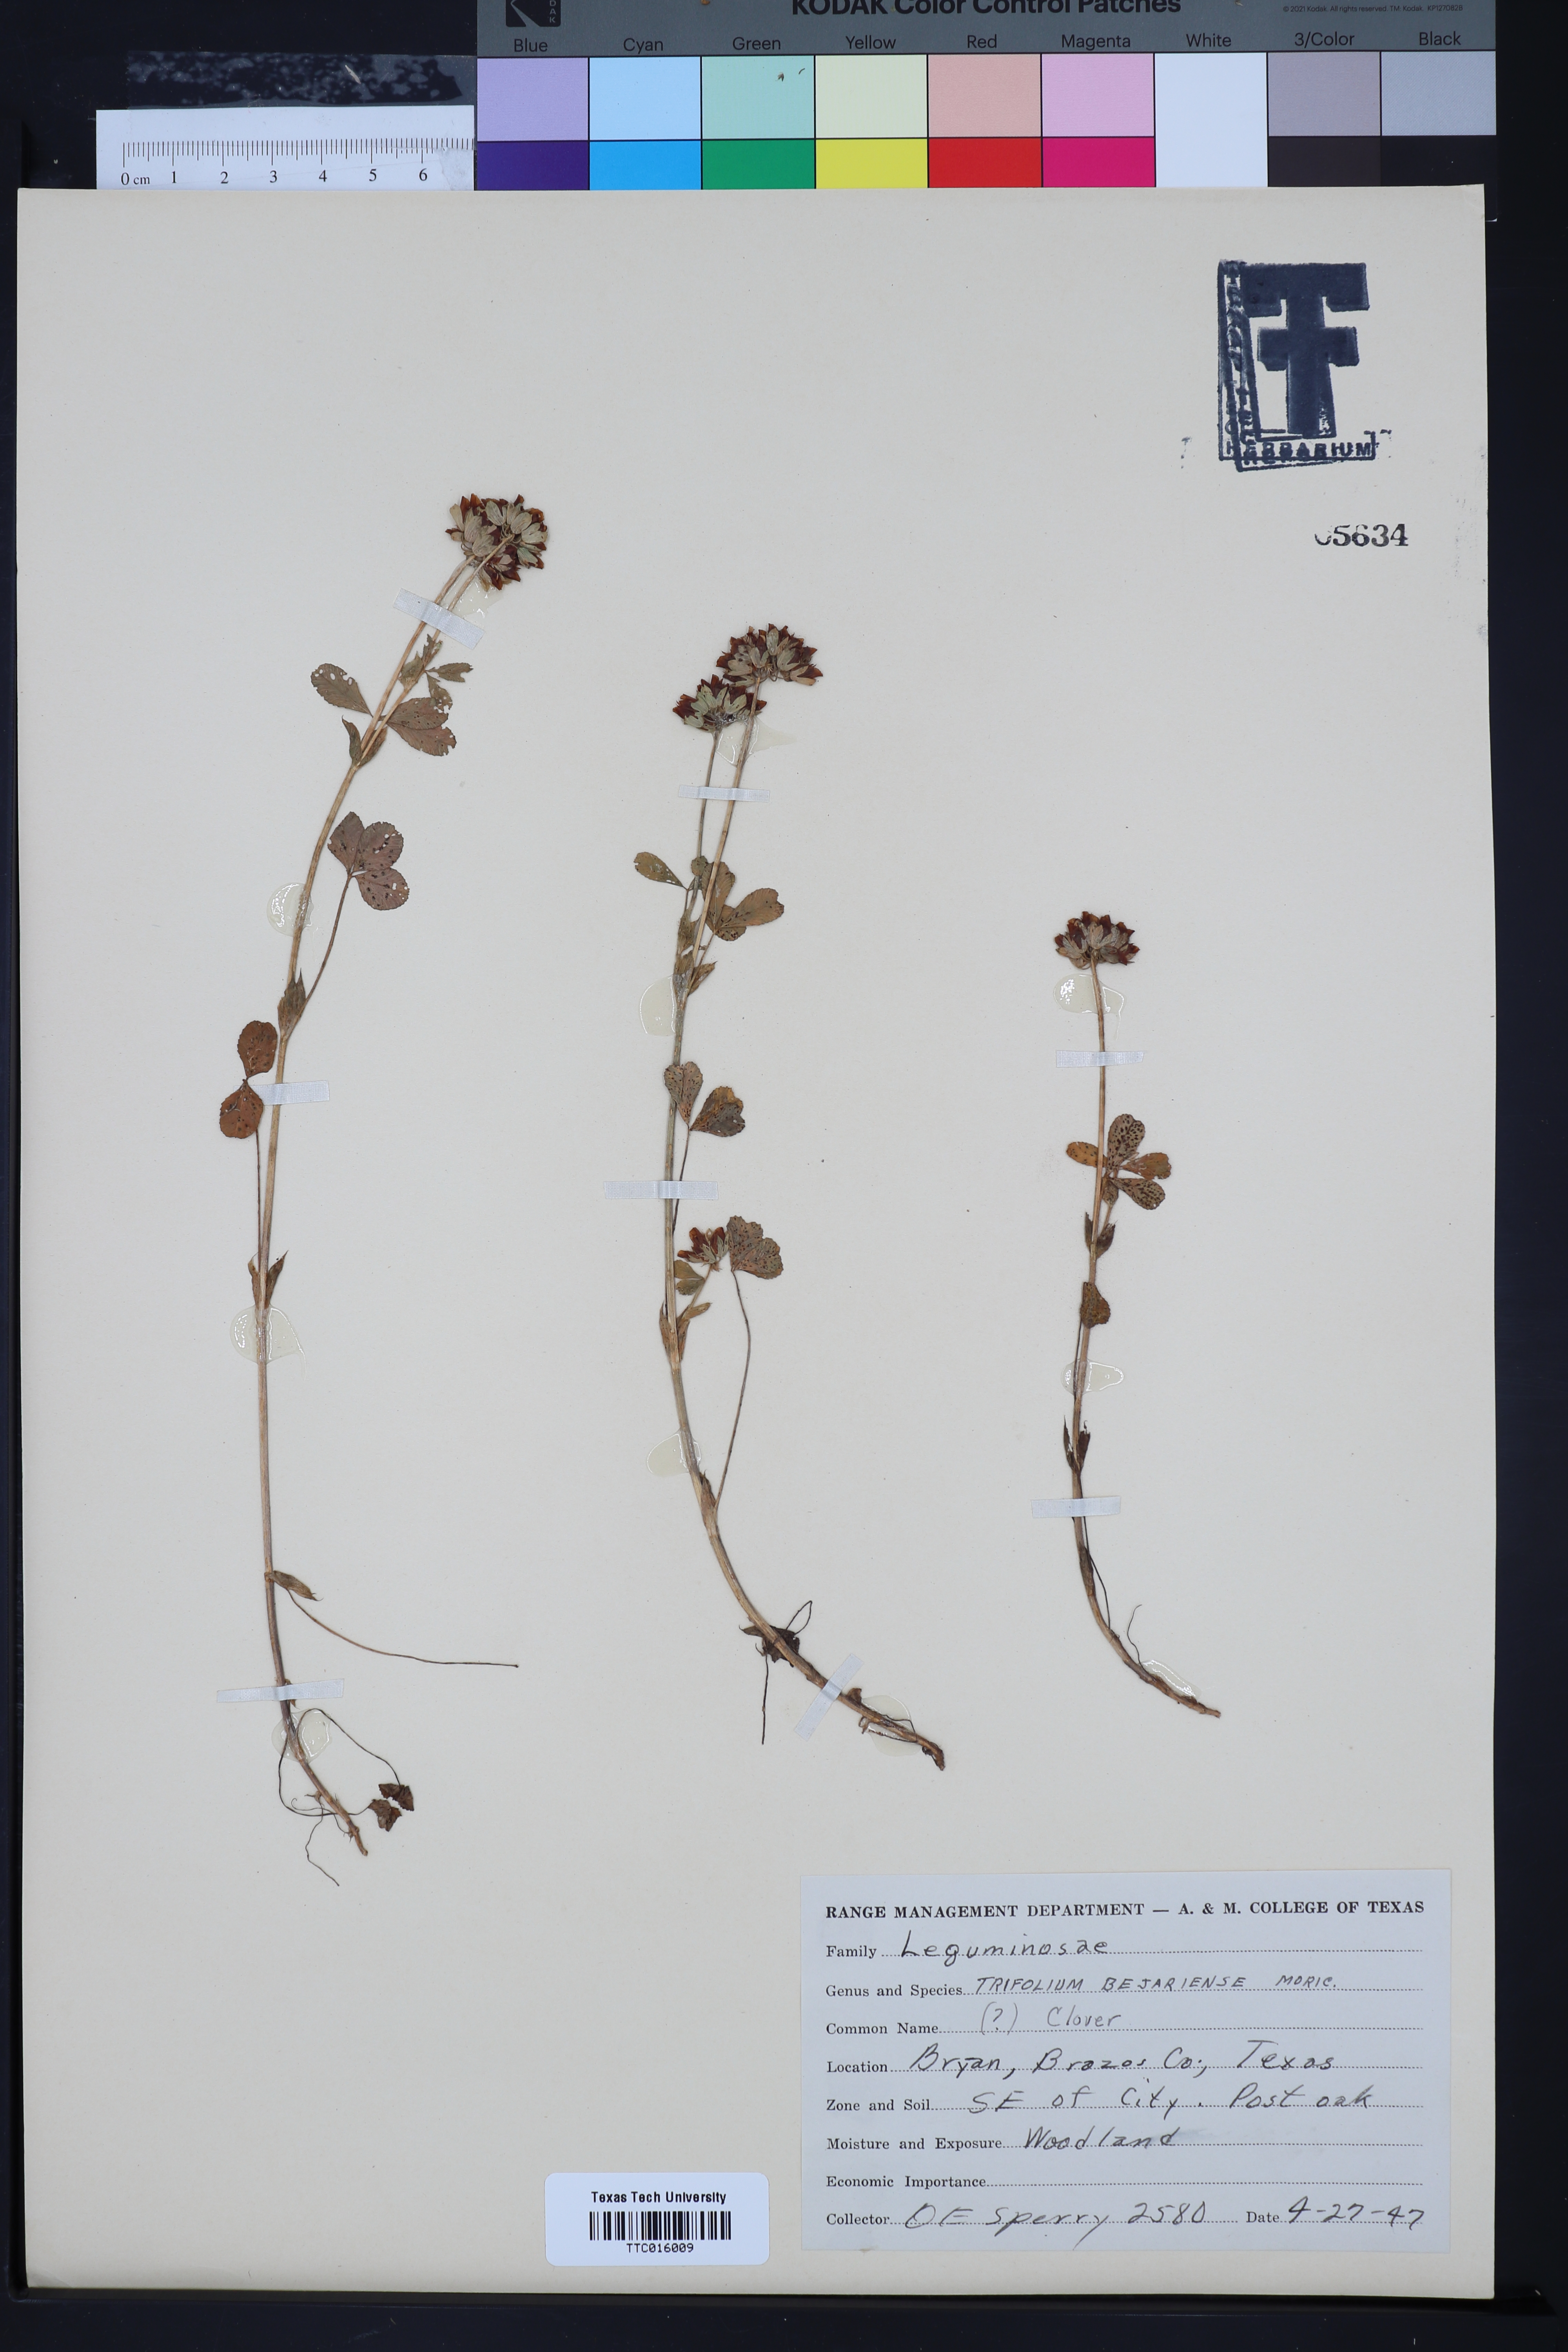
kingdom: Plantae
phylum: Tracheophyta
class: Magnoliopsida
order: Fabales
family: Fabaceae
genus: Trifolium
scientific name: Trifolium bejariense
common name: Bejar clover
